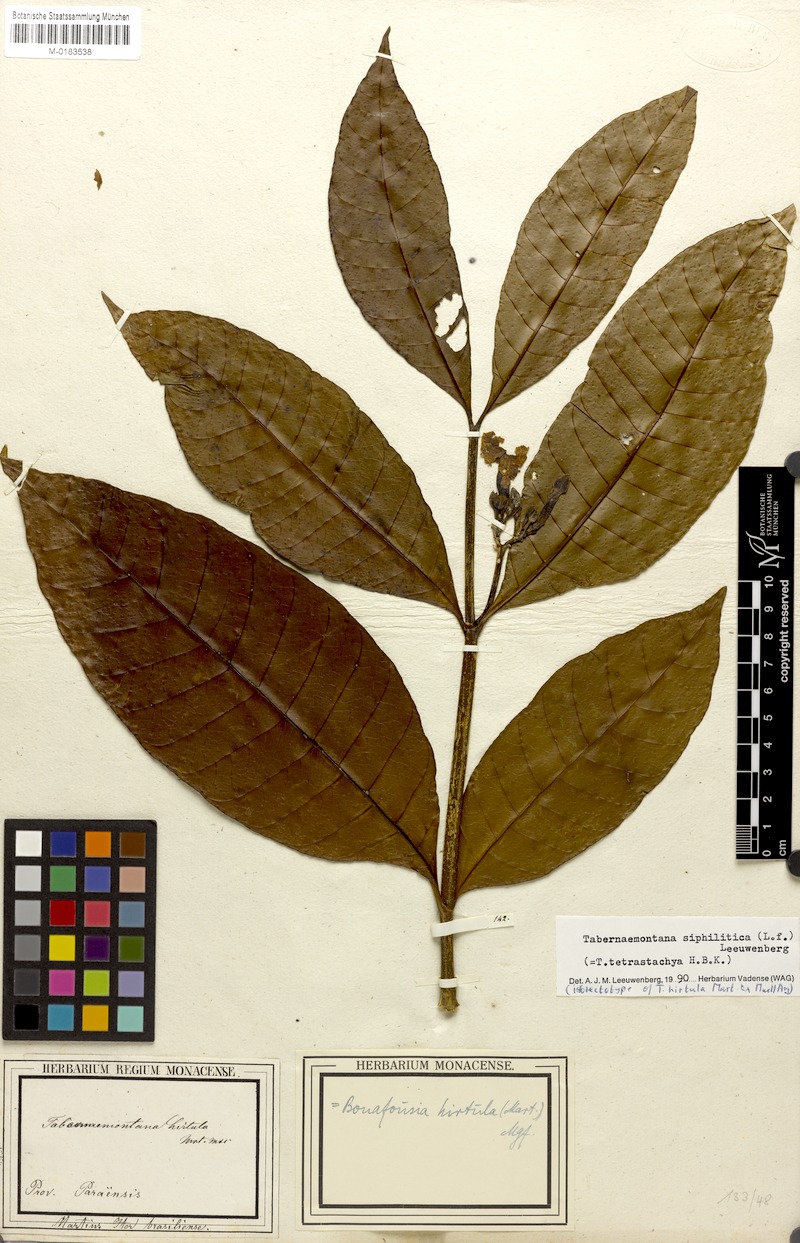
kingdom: Plantae
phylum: Tracheophyta
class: Magnoliopsida
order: Gentianales
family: Apocynaceae
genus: Tabernaemontana
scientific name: Tabernaemontana siphilitica
